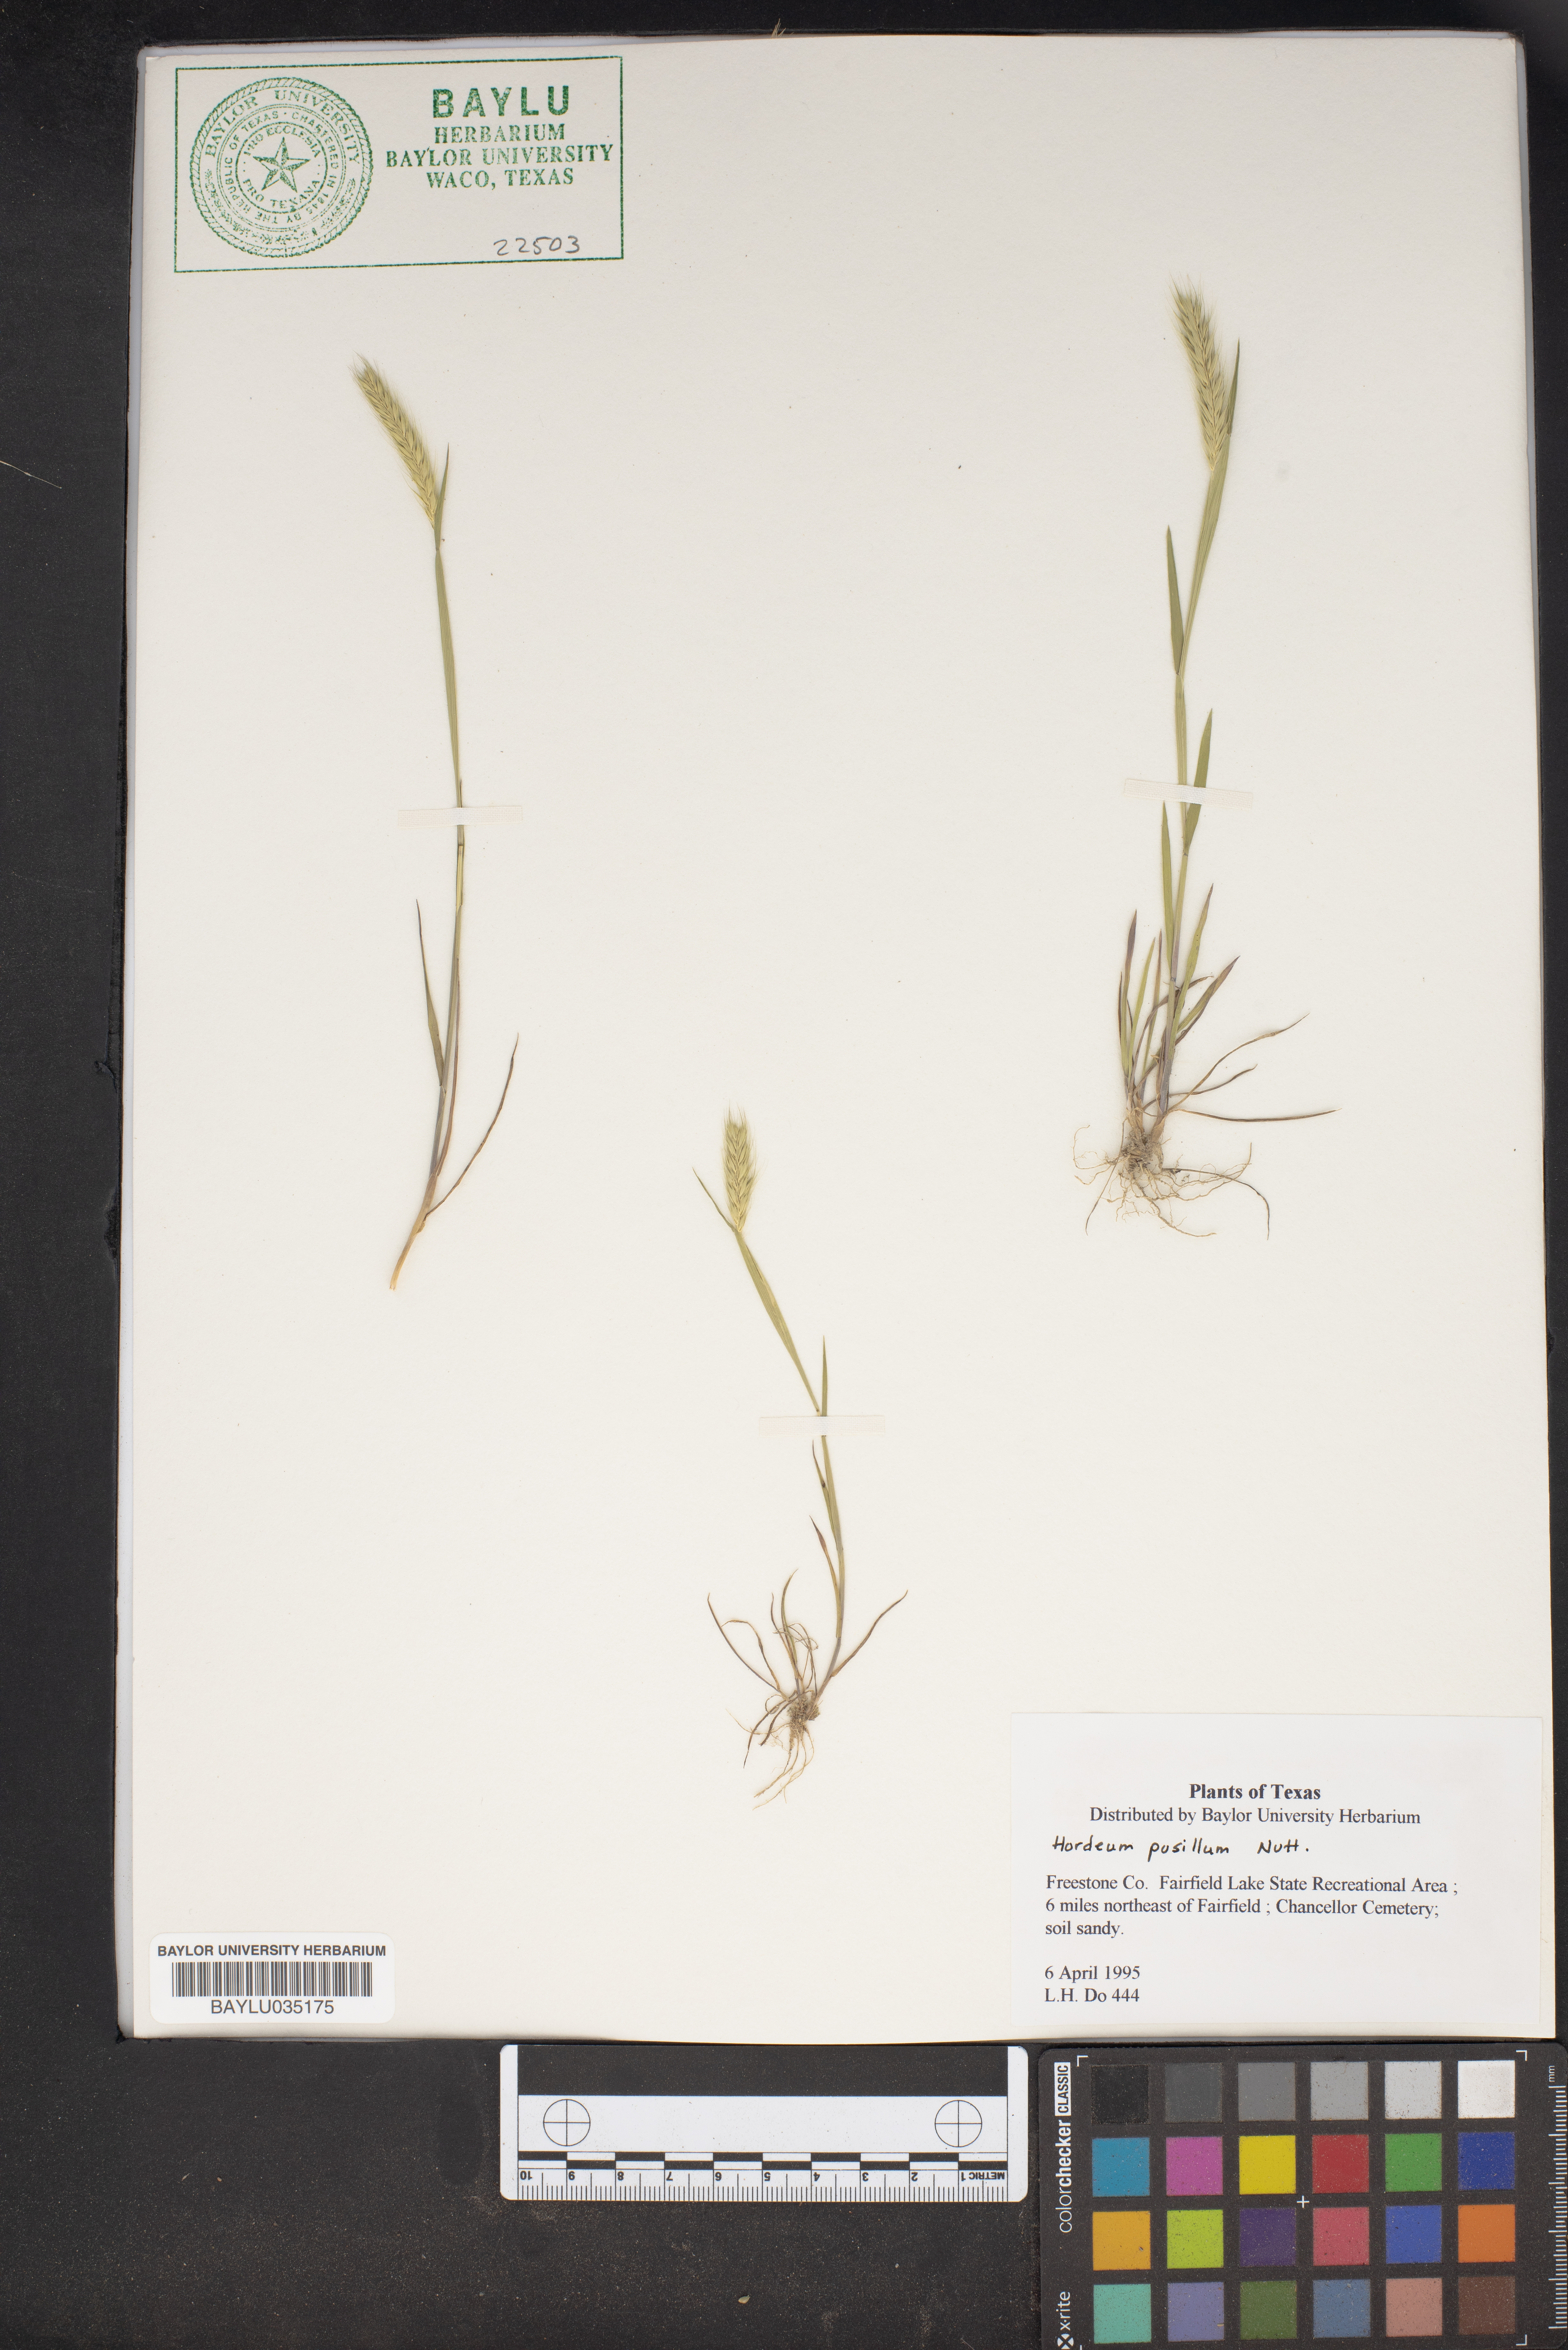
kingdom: Plantae
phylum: Tracheophyta
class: Liliopsida
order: Poales
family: Poaceae
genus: Hordeum
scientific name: Hordeum pusillum
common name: Little barley
